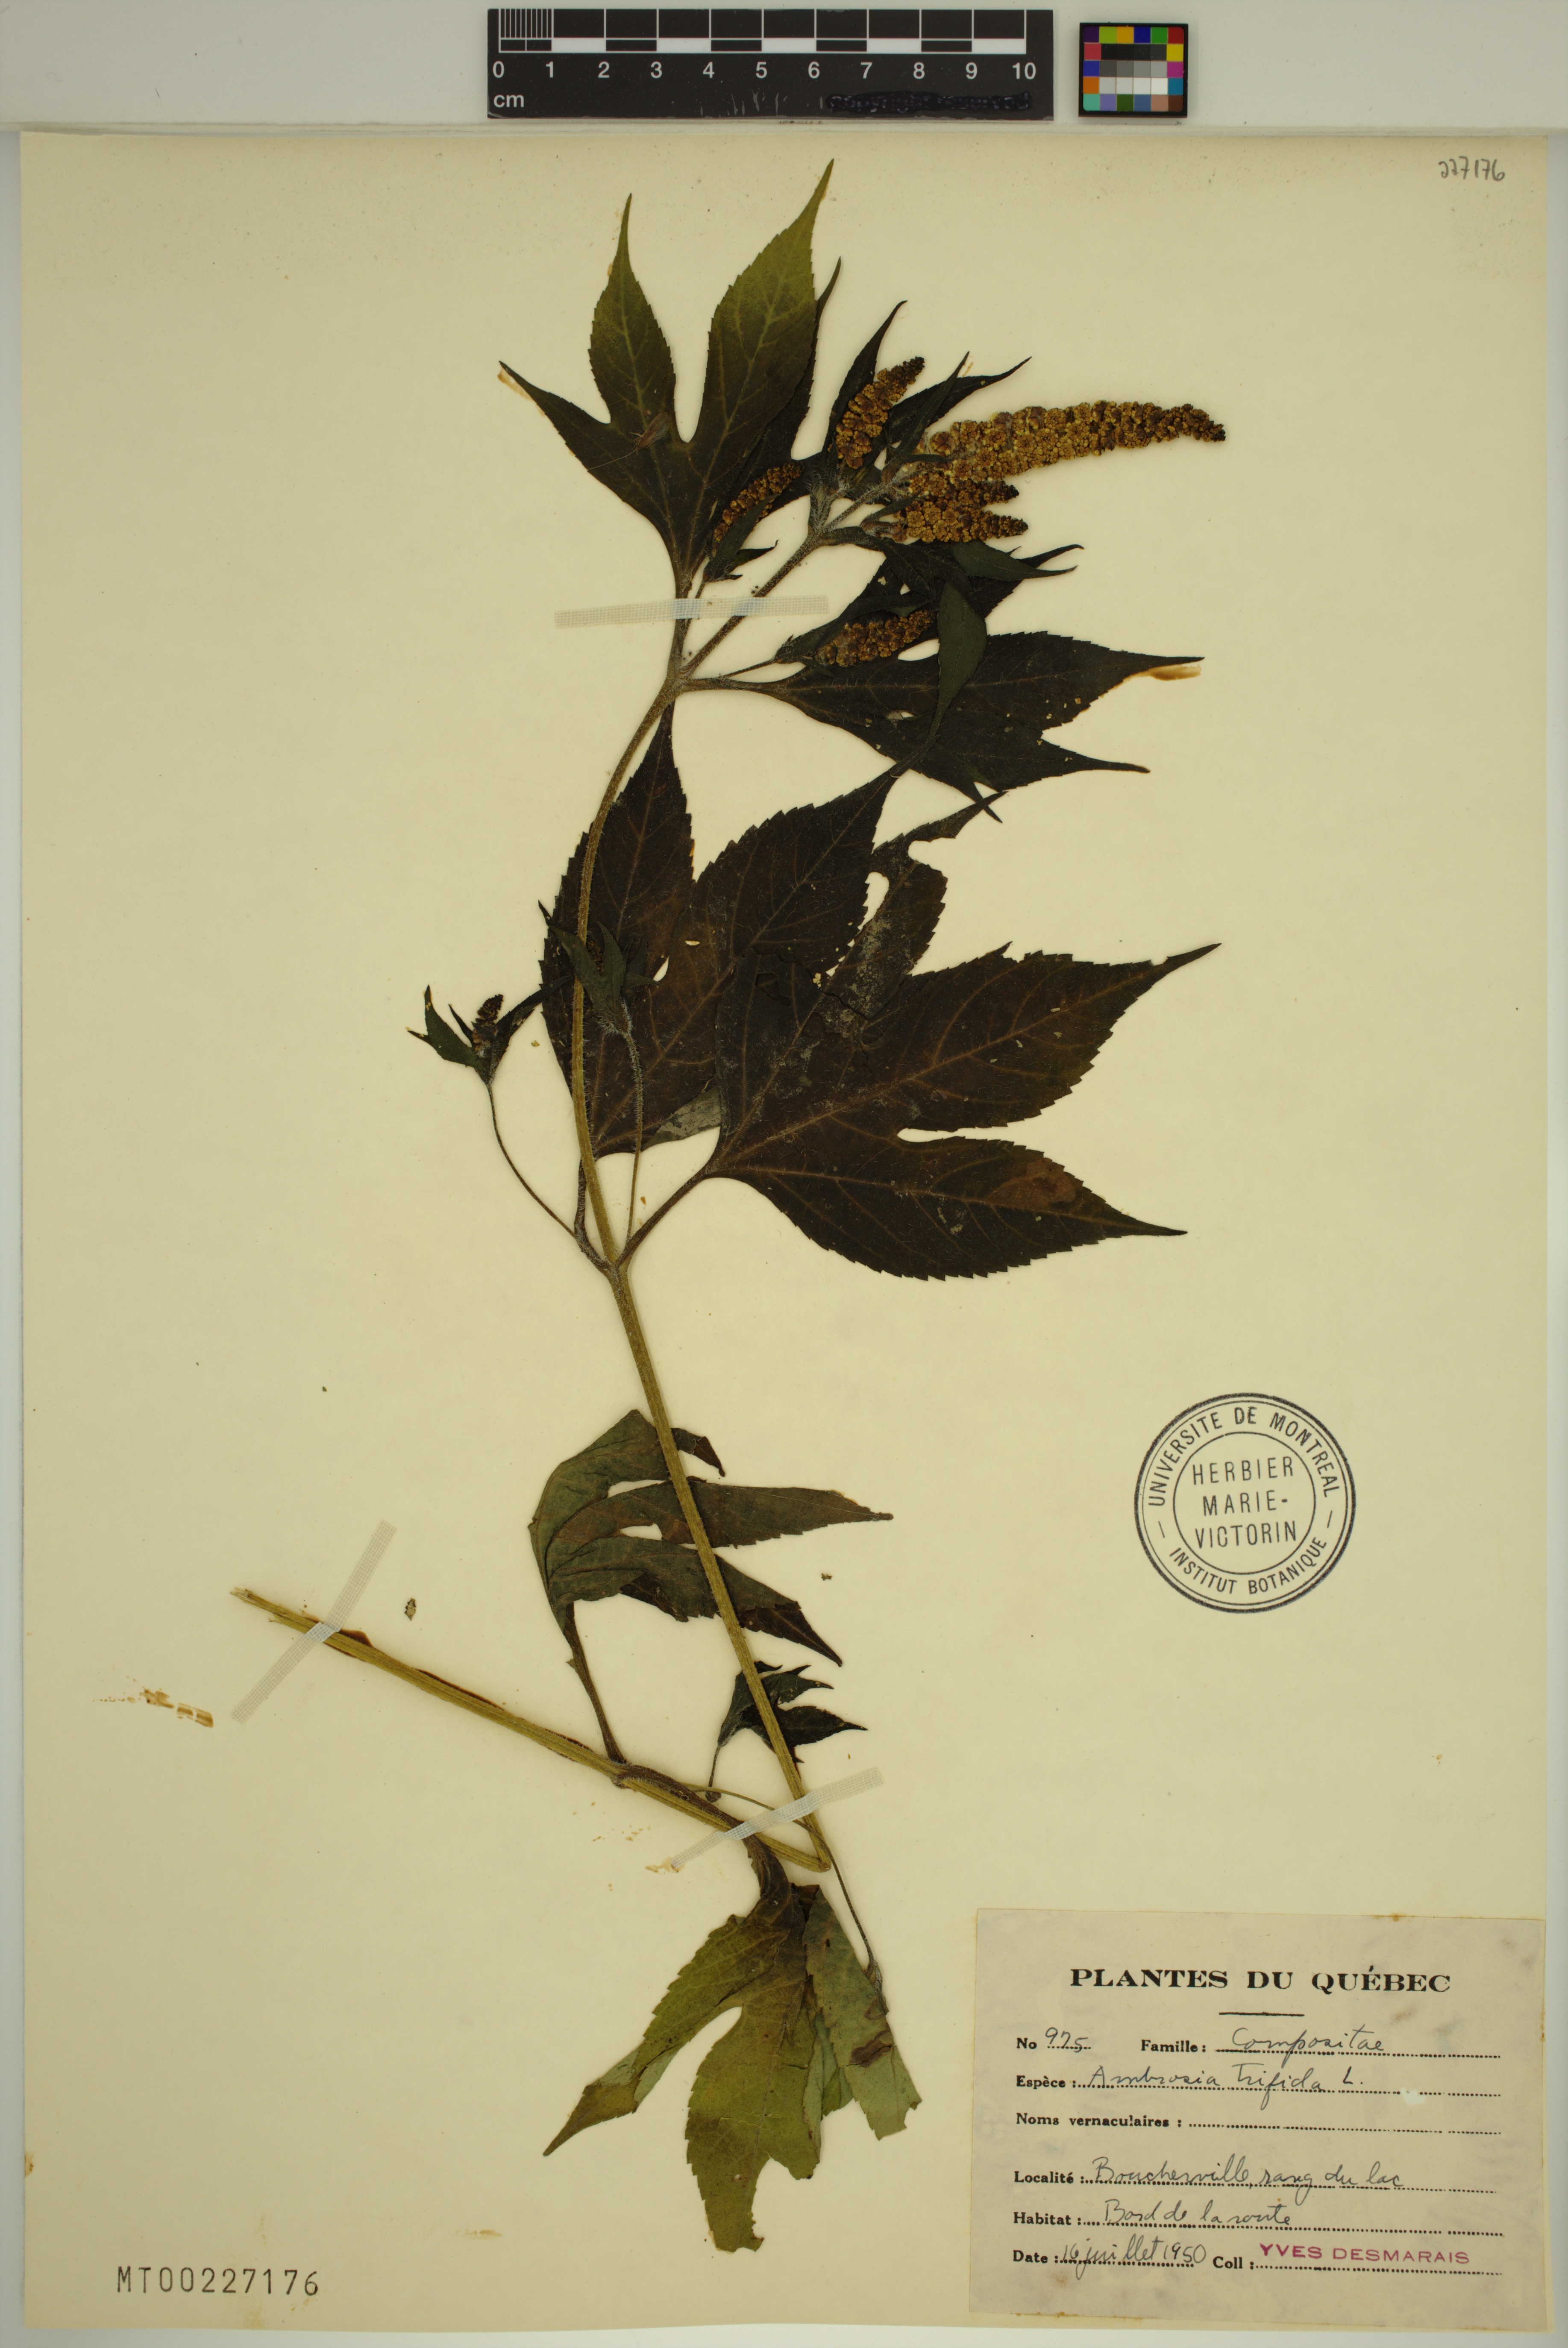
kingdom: Plantae
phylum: Tracheophyta
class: Magnoliopsida
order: Asterales
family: Asteraceae
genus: Ambrosia
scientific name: Ambrosia trifida
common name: Giant ragweed
